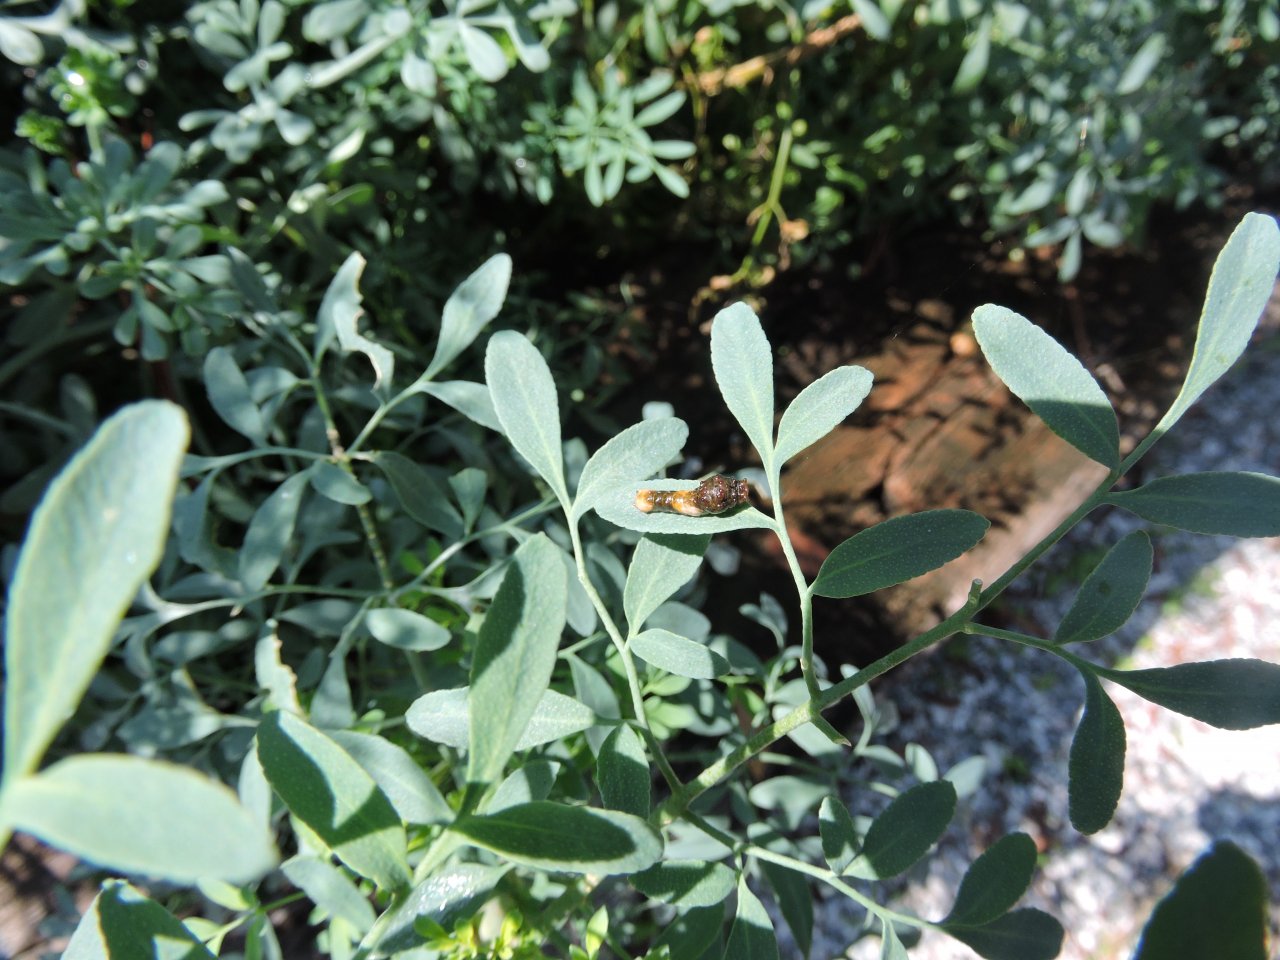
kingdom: Animalia
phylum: Arthropoda
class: Insecta
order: Lepidoptera
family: Papilionidae
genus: Papilio
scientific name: Papilio cresphontes
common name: Eastern Giant Swallowtail
